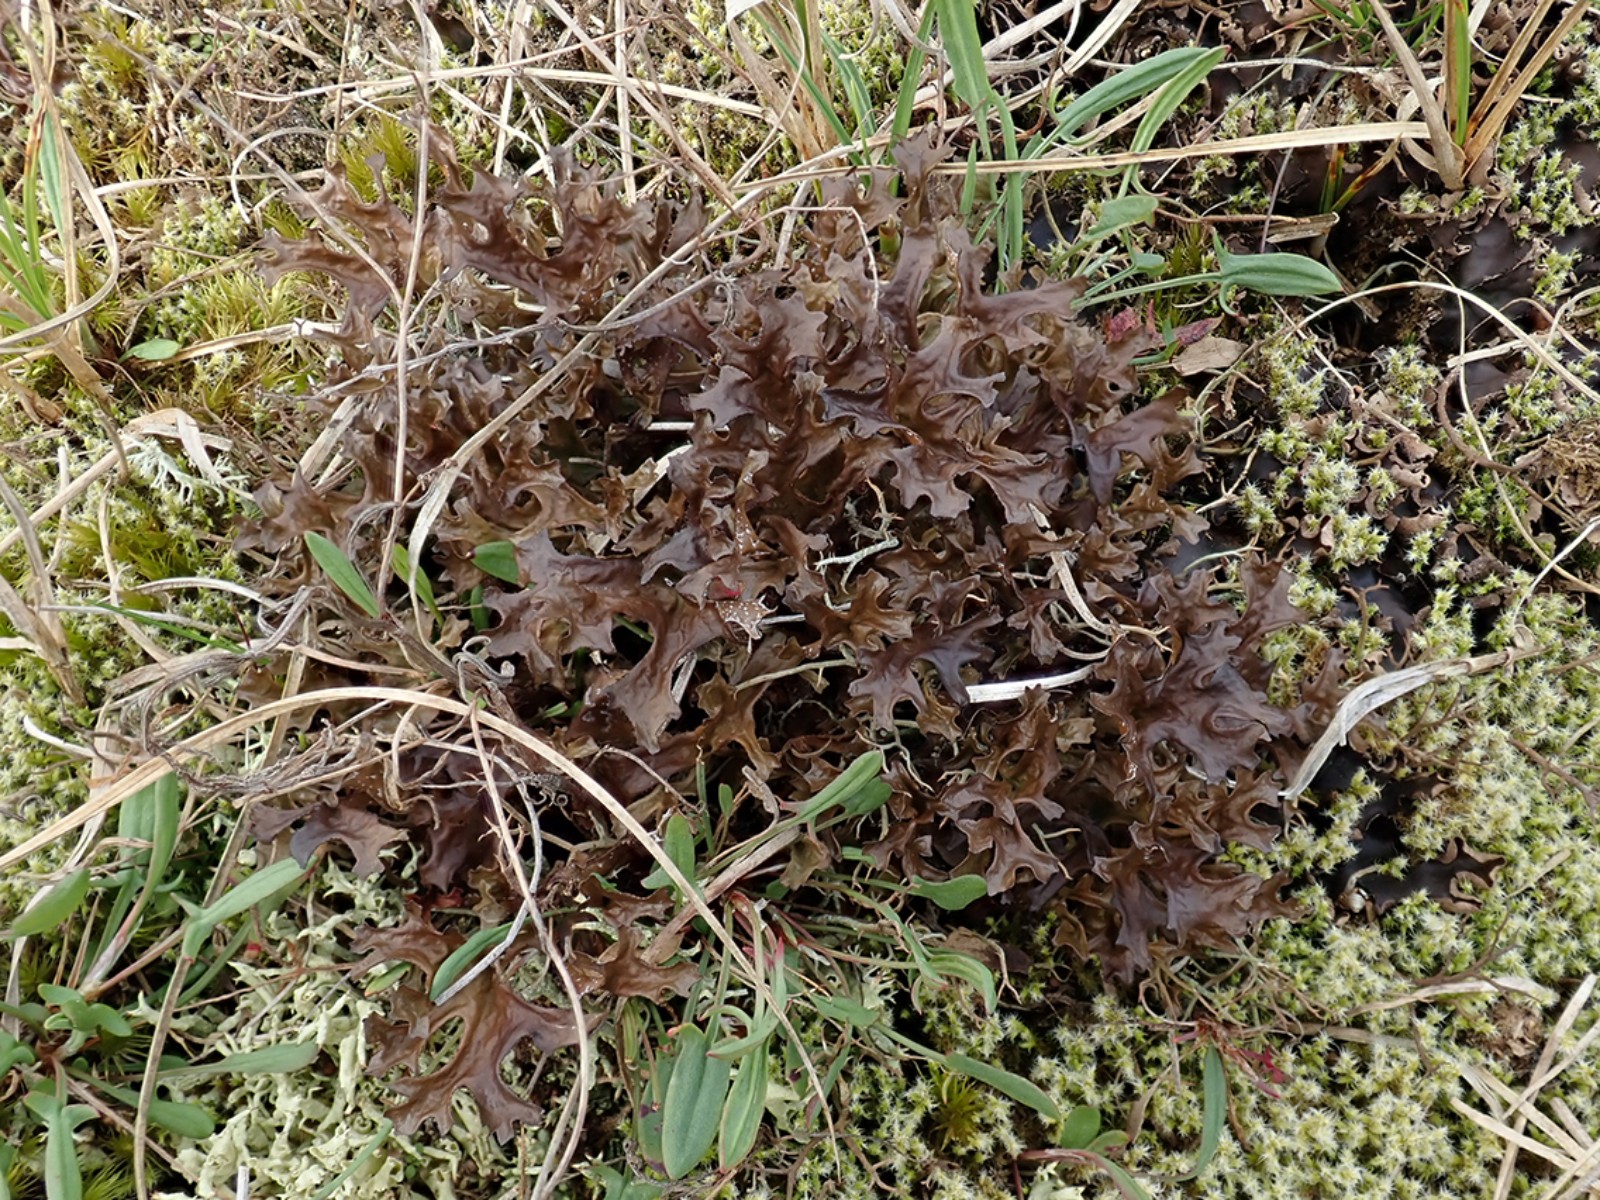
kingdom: Fungi
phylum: Ascomycota
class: Lecanoromycetes
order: Lecanorales
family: Parmeliaceae
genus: Cetraria
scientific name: Cetraria islandica
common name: islandsk kruslav
